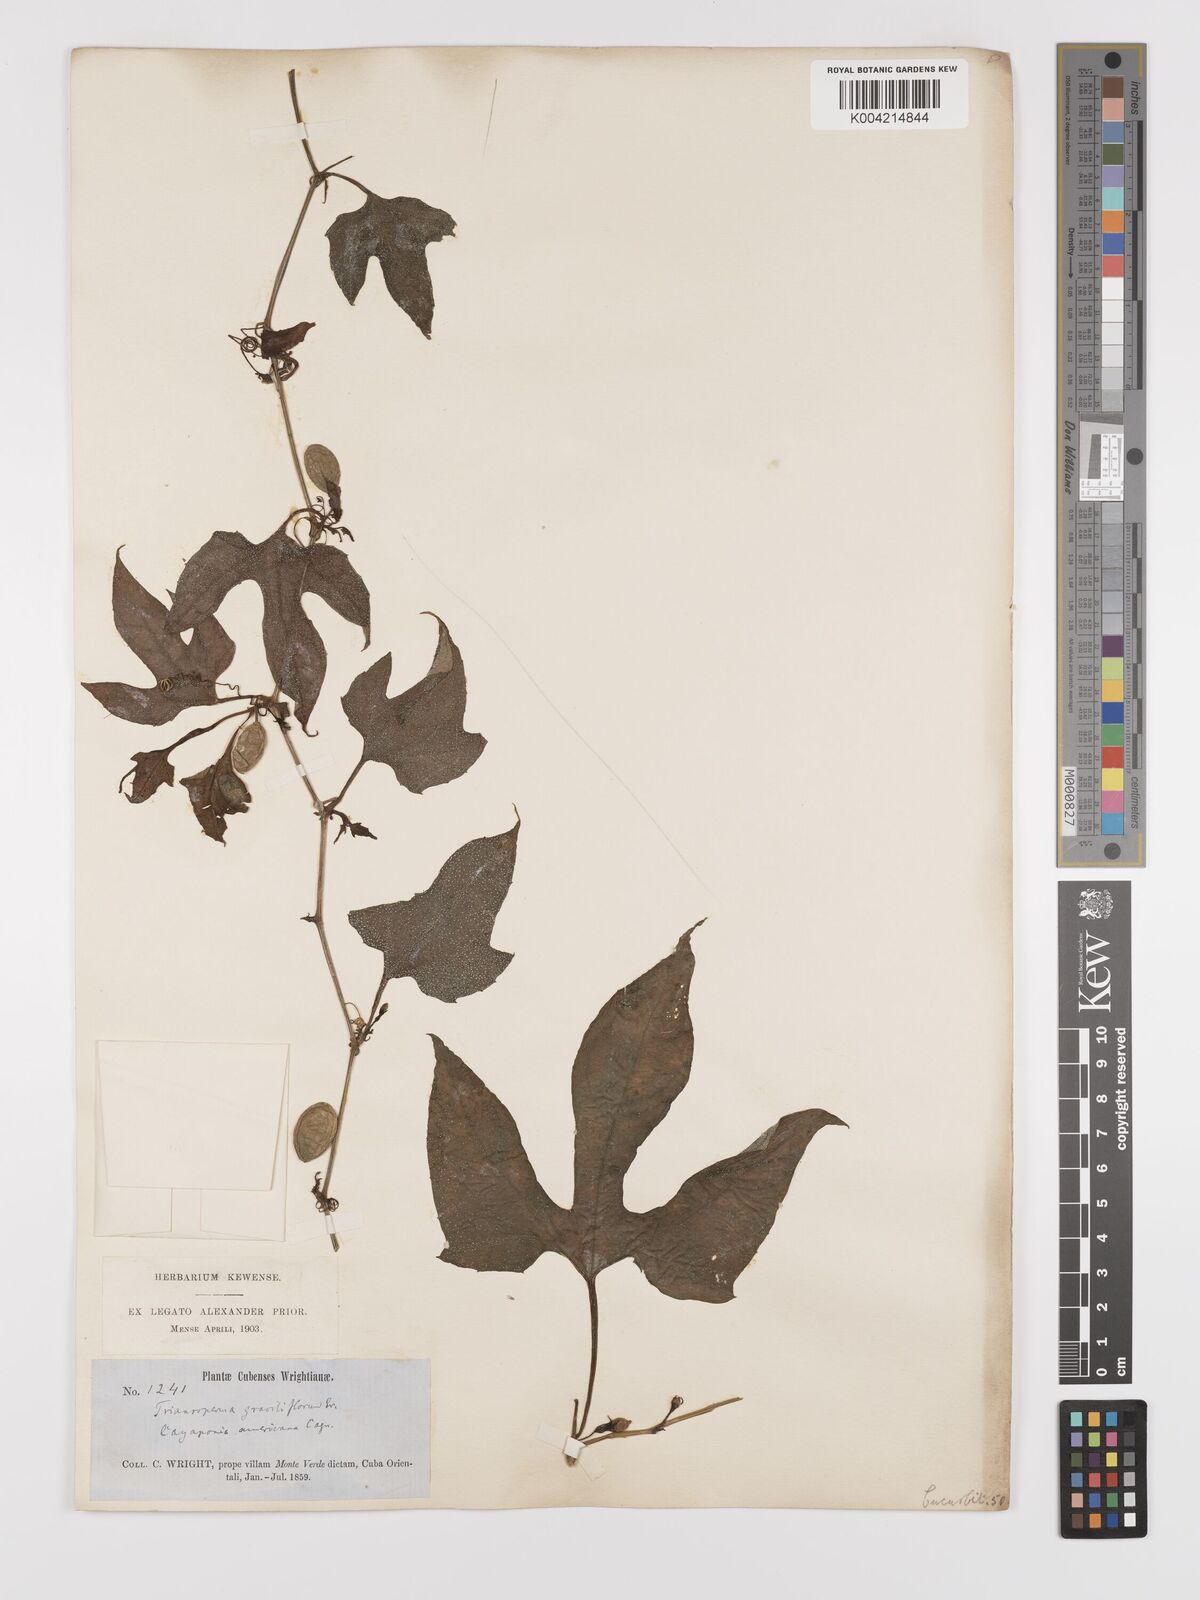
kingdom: Plantae
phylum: Tracheophyta
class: Magnoliopsida
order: Cucurbitales
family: Cucurbitaceae
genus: Cayaponia
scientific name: Cayaponia americana
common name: American melonleaf
